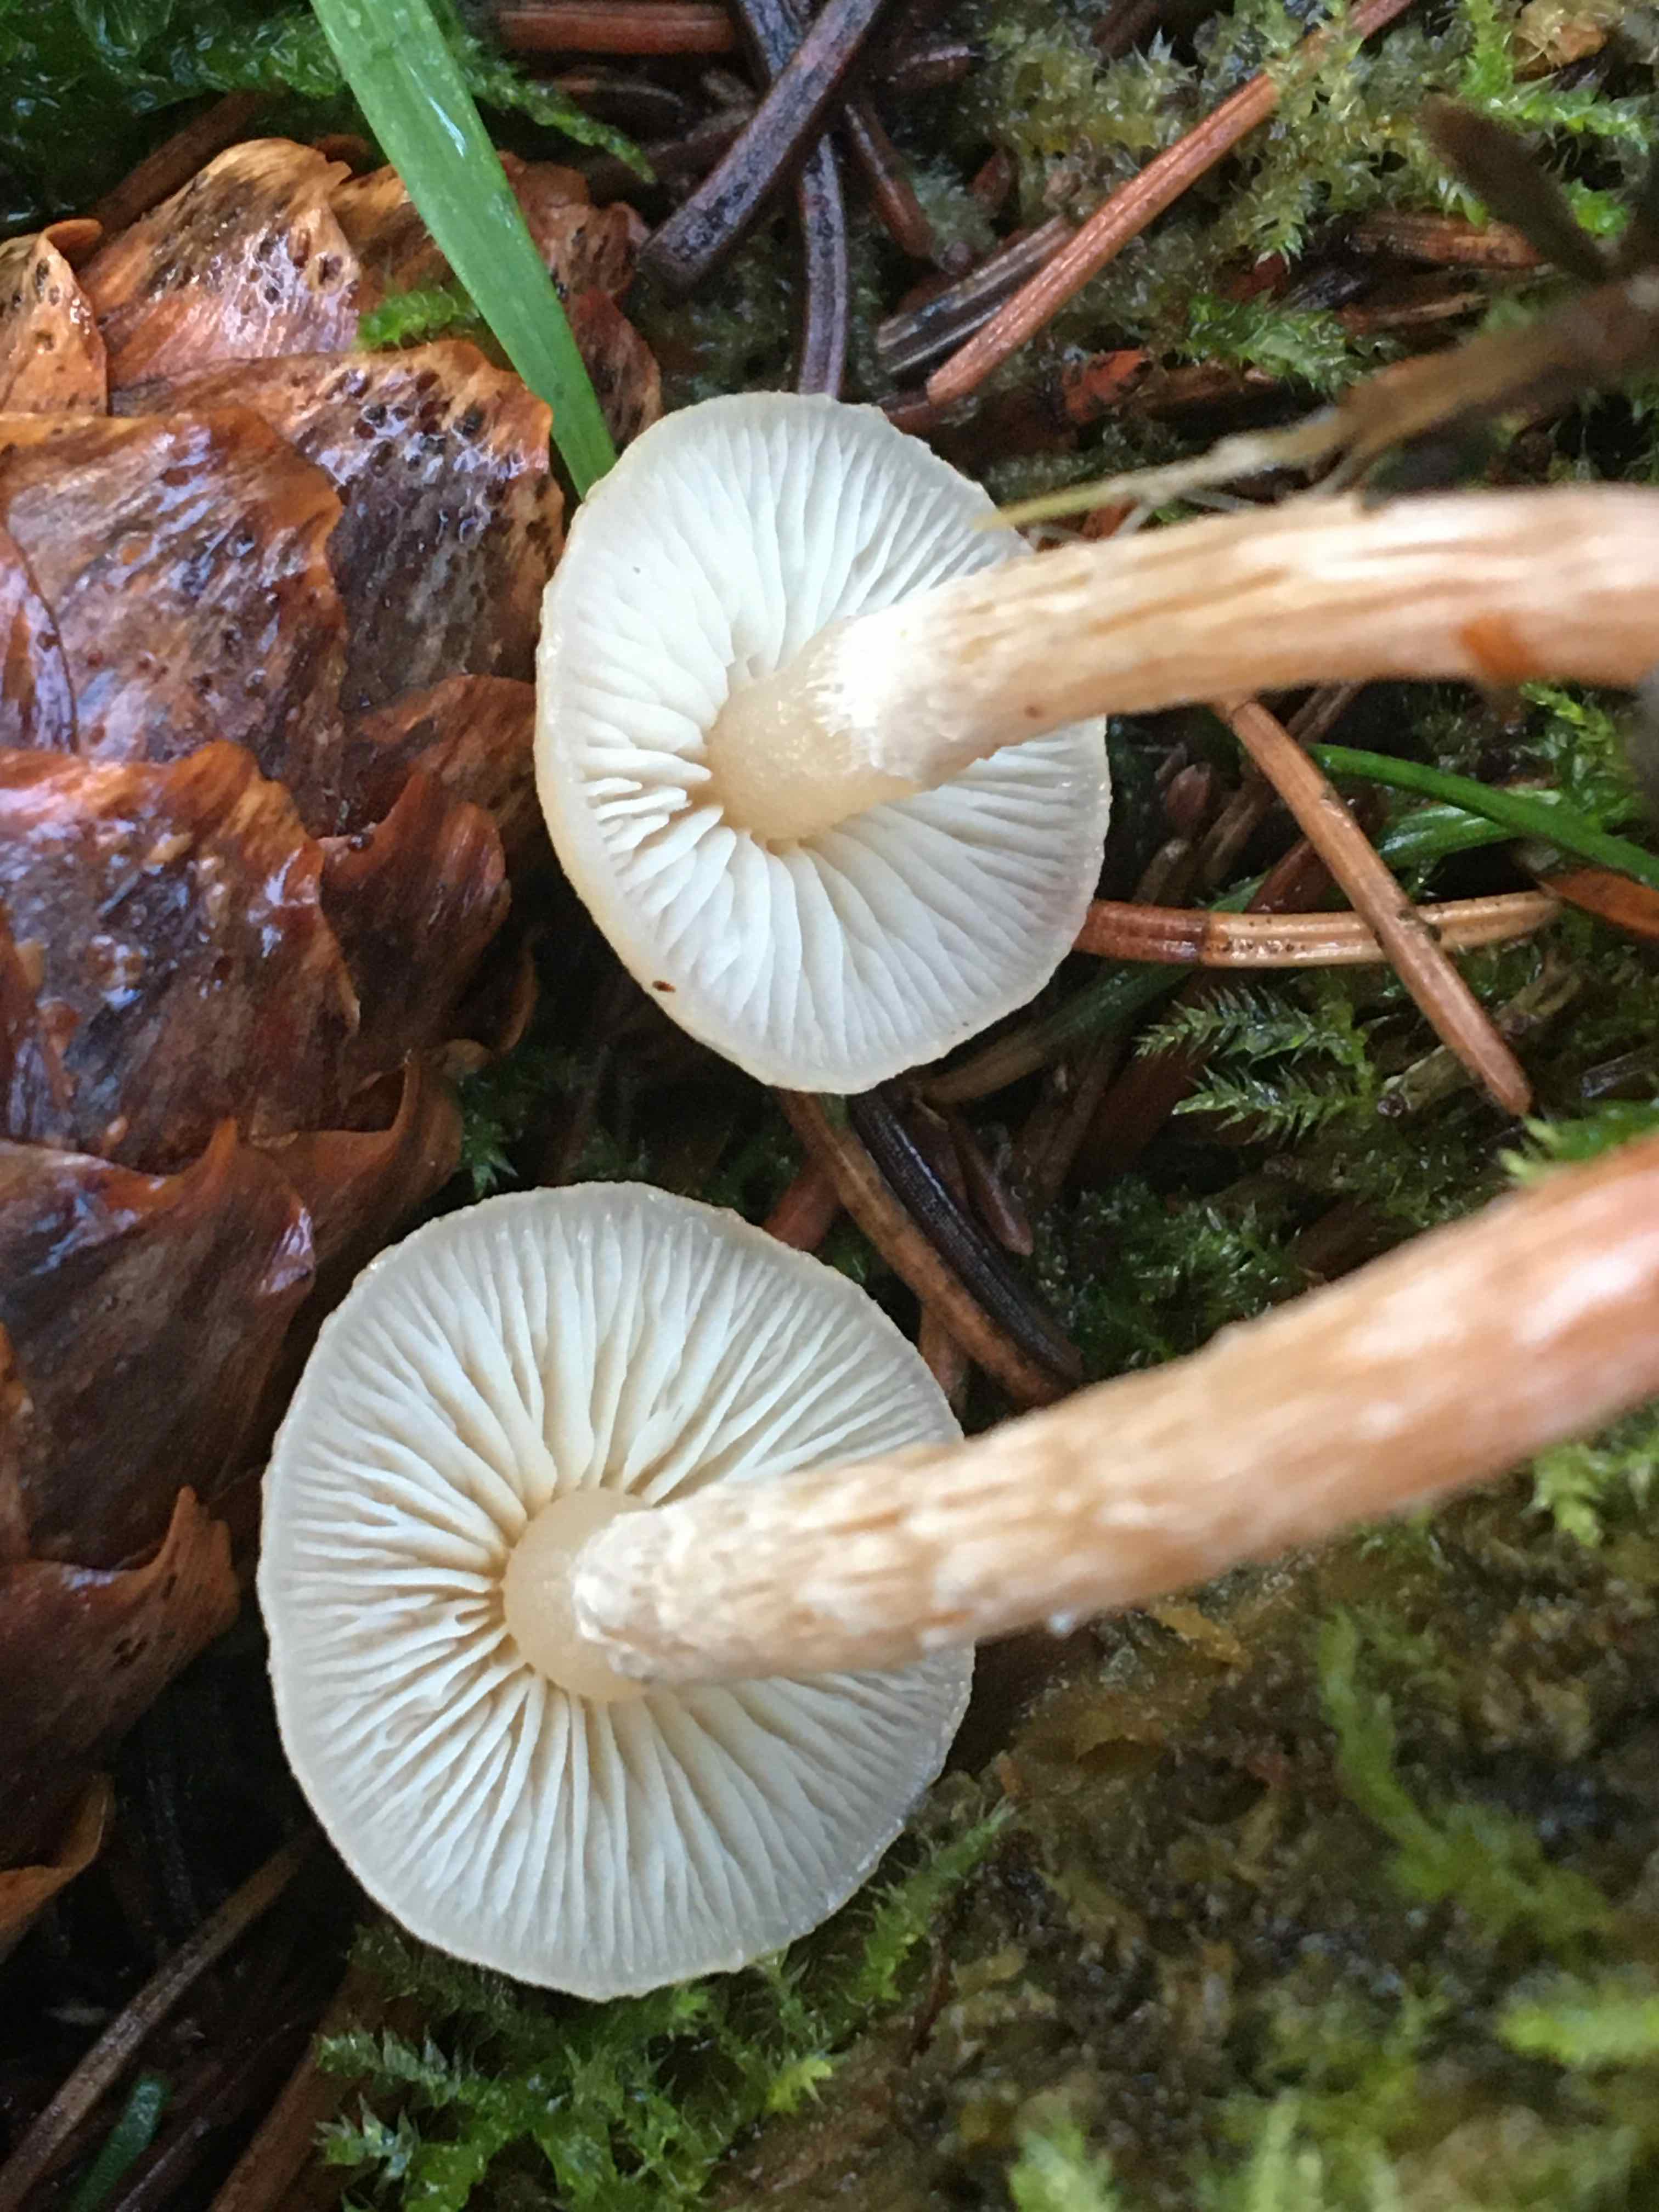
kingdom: Fungi
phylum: Basidiomycota
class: Agaricomycetes
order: Agaricales
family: Strophariaceae
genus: Hypholoma
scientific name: Hypholoma capnoides
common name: gran-svovlhat
